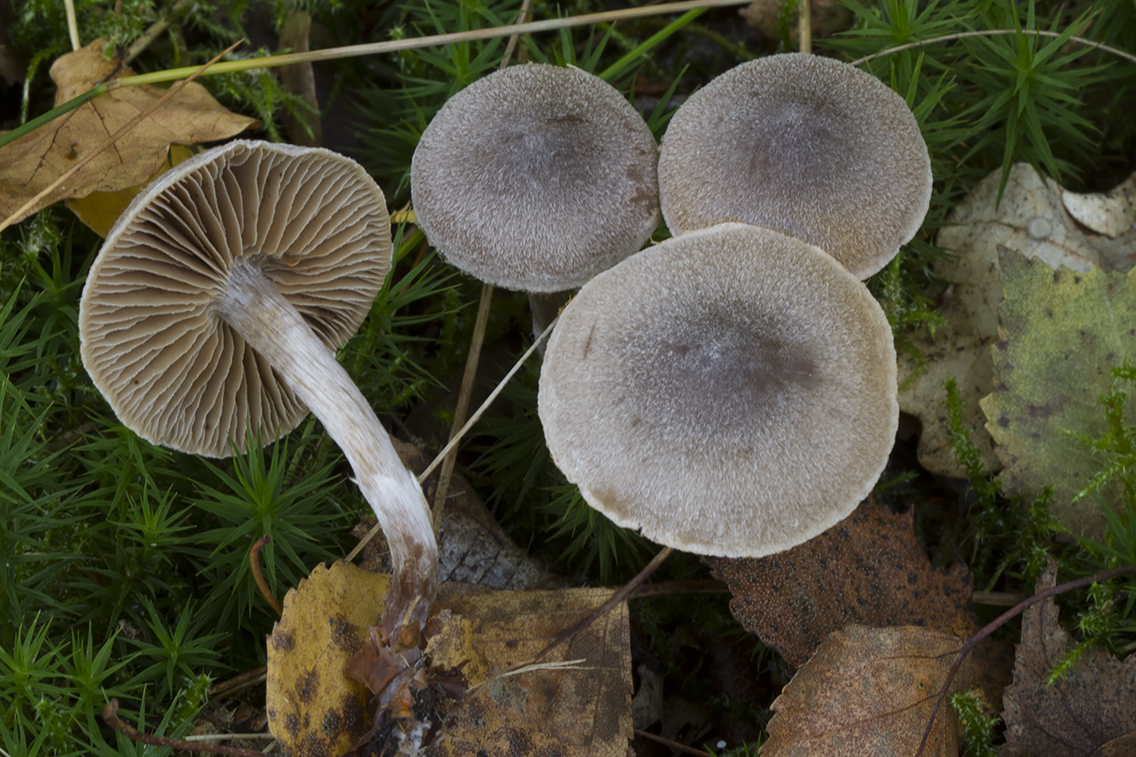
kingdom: Fungi
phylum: Basidiomycota
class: Agaricomycetes
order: Agaricales
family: Cortinariaceae
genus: Cortinarius
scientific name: Cortinarius hemitrichus
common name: hvidfnugget slørhat
